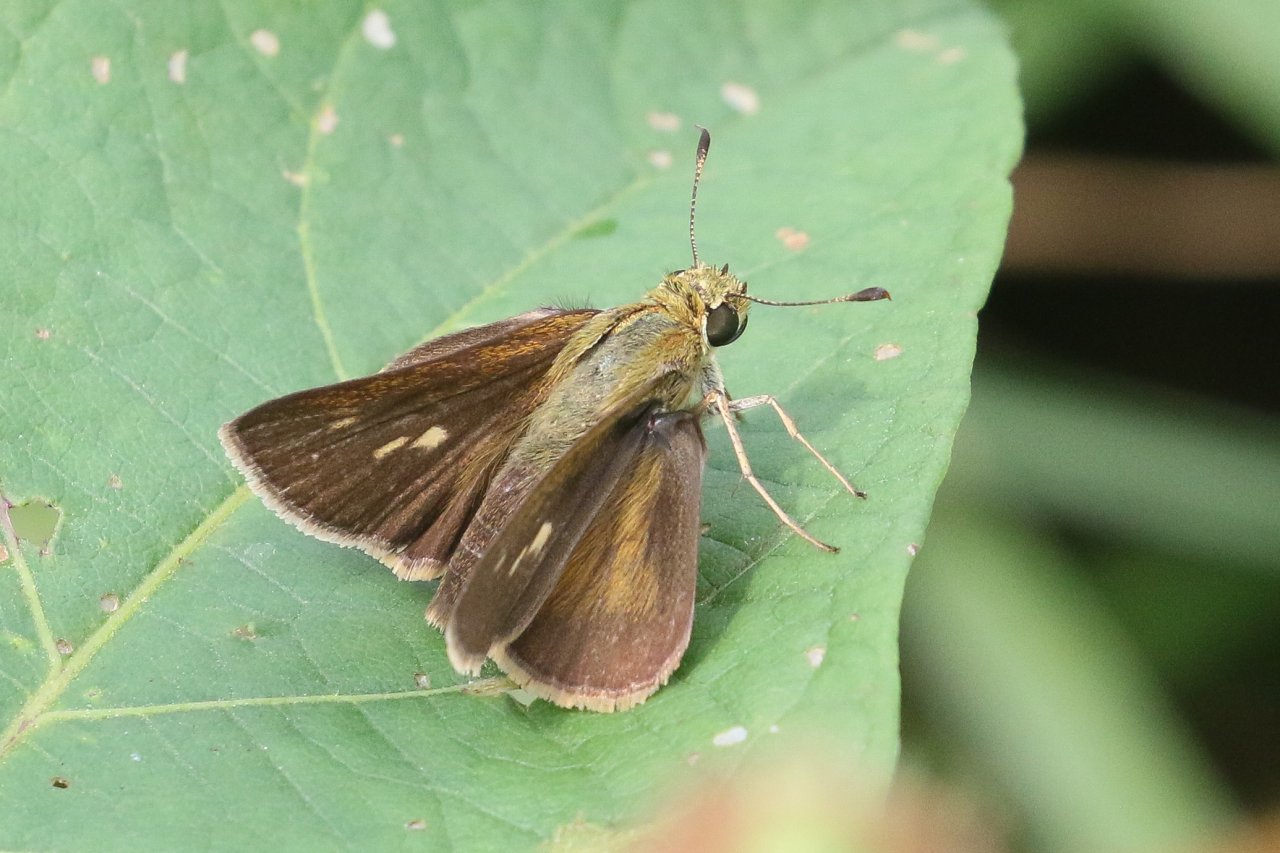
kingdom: Animalia
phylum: Arthropoda
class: Insecta
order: Lepidoptera
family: Hesperiidae
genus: Polites
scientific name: Polites egeremet
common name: Northern Broken-Dash
